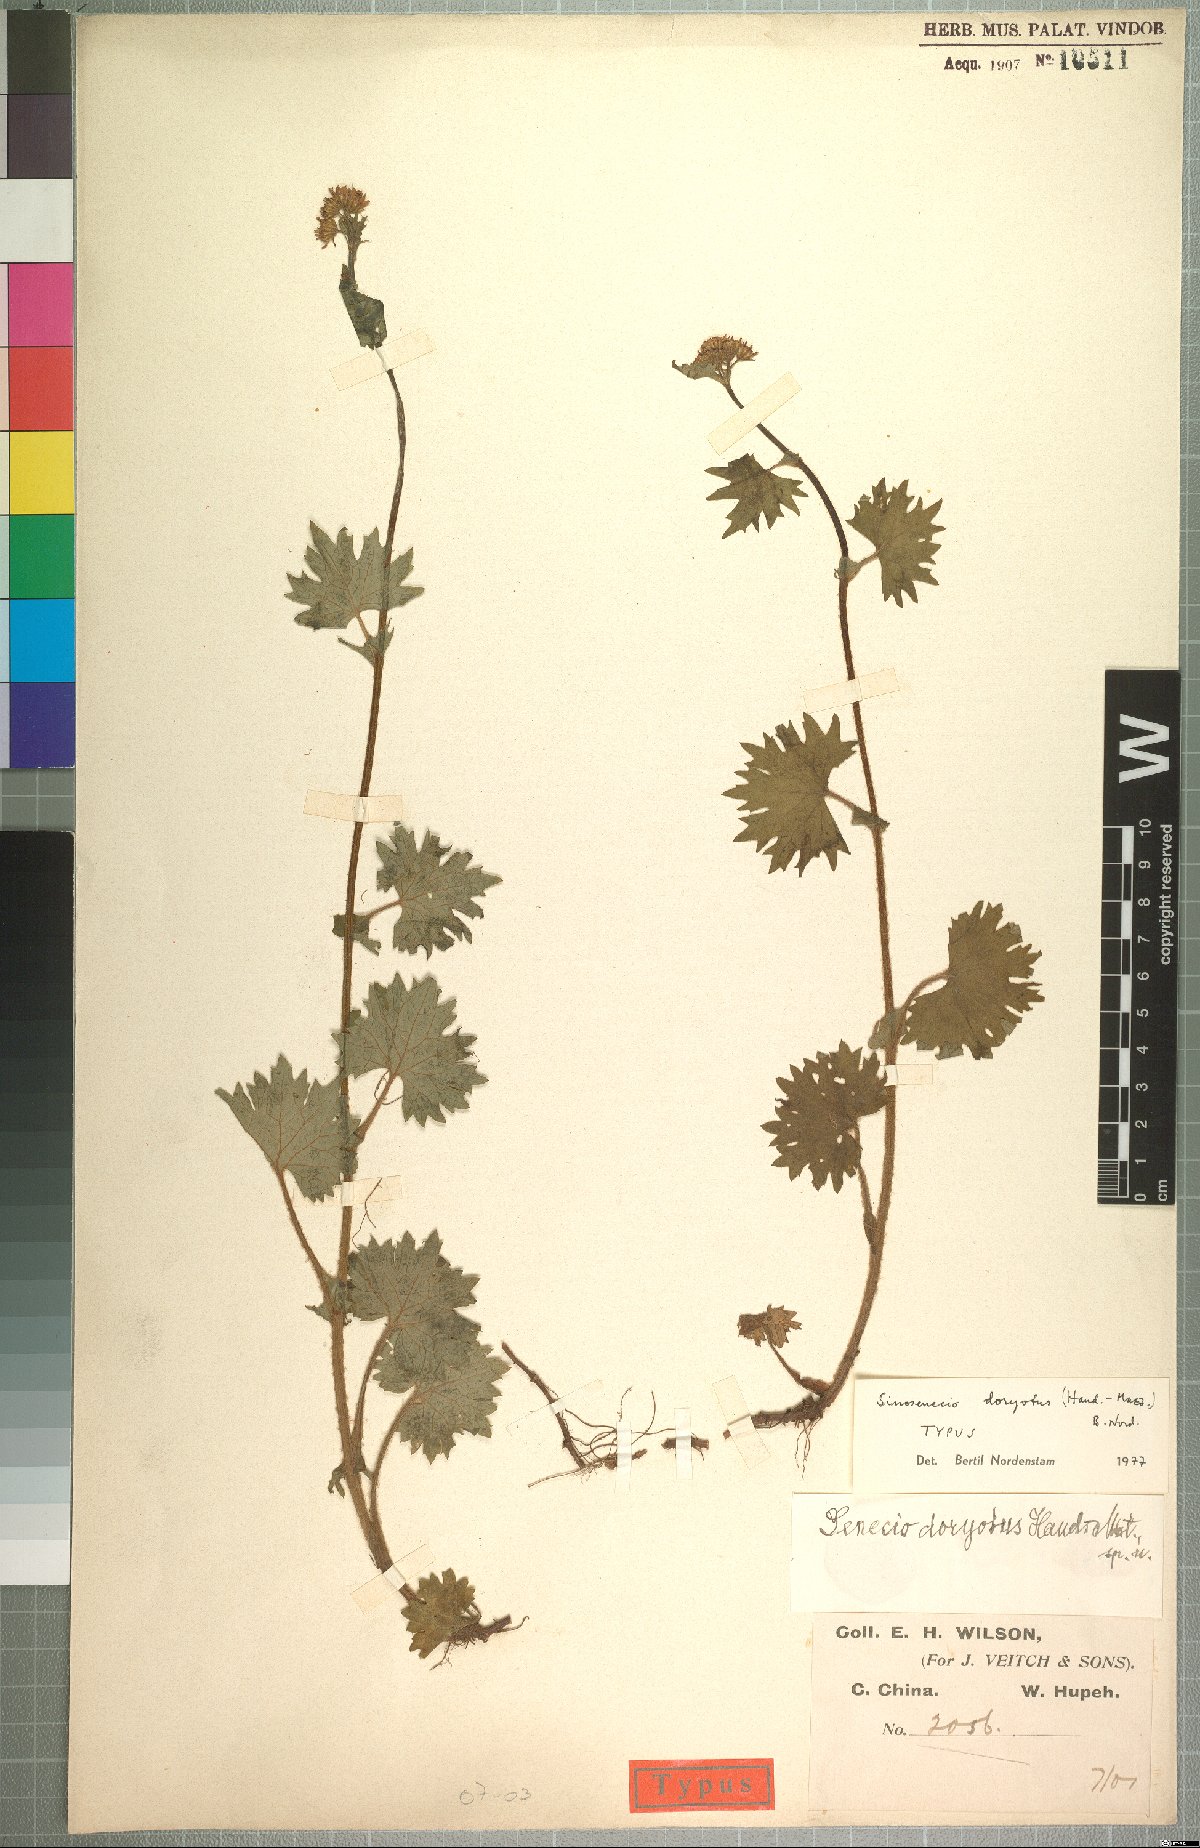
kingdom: Plantae
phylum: Tracheophyta
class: Magnoliopsida
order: Asterales
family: Asteraceae
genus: Sinosenecio
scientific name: Sinosenecio euosmus
